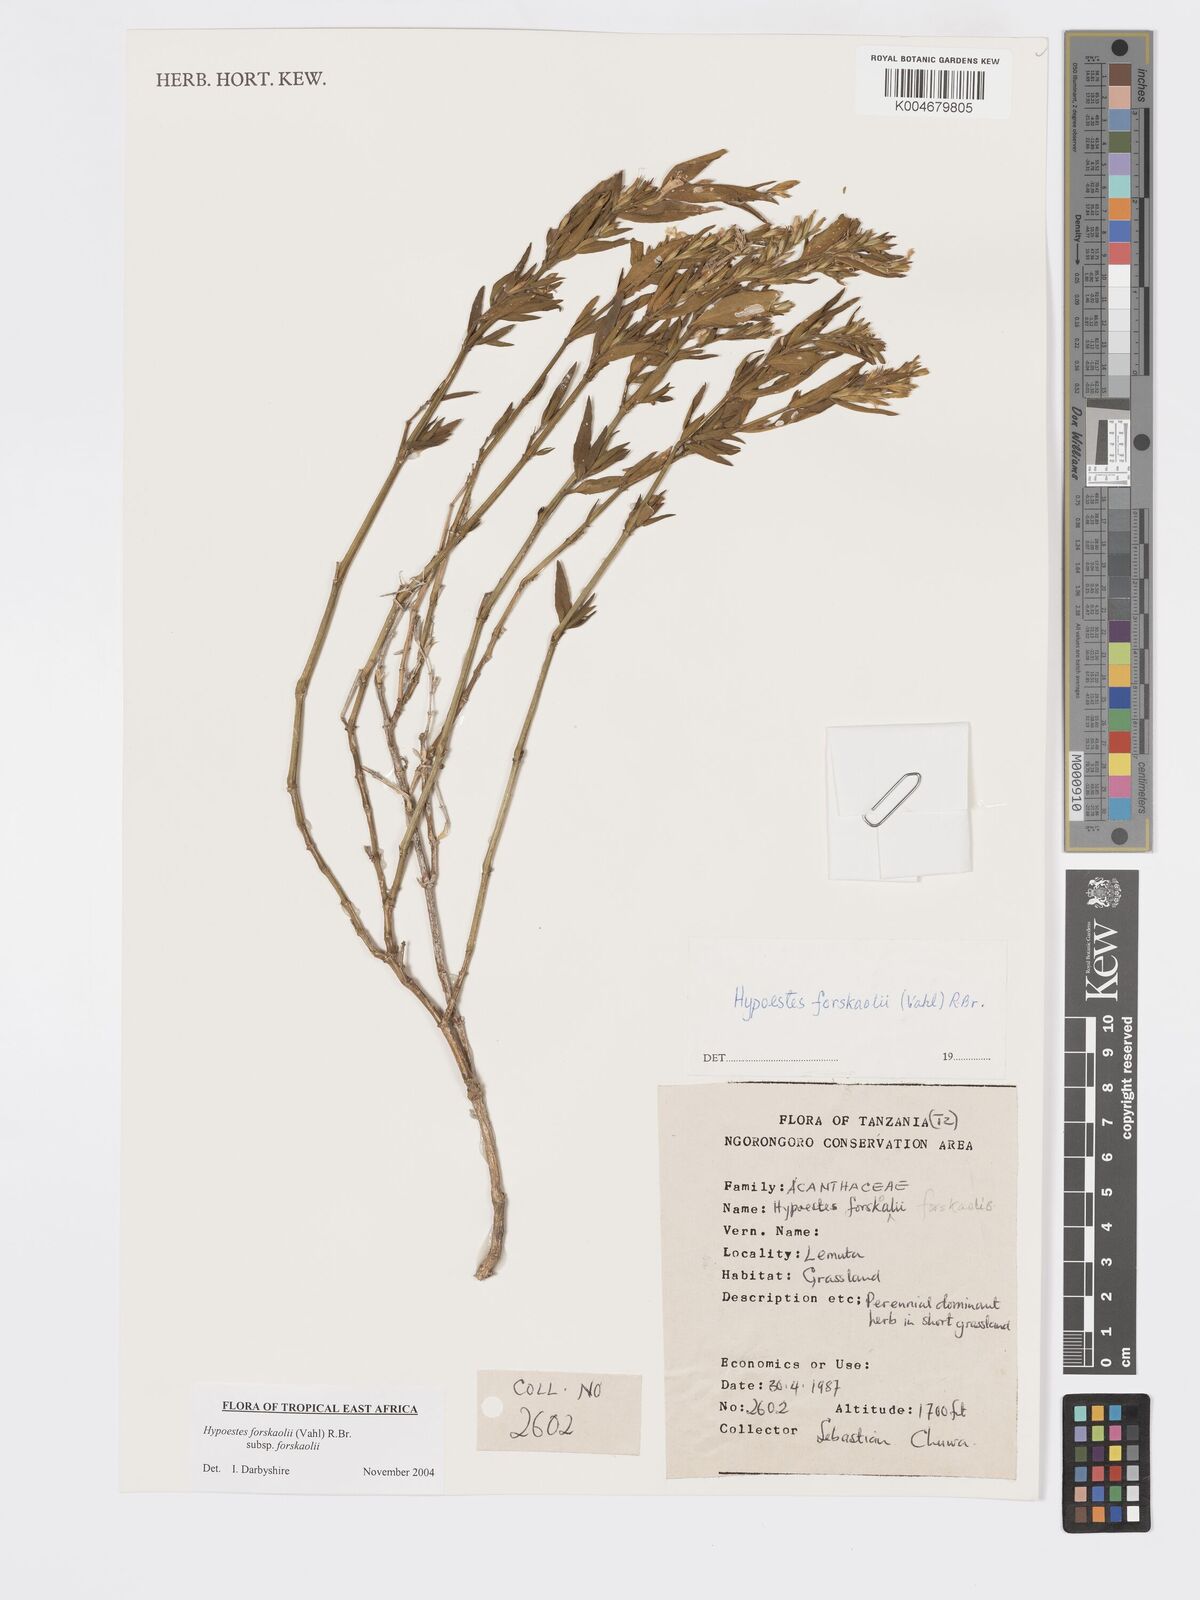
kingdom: Plantae
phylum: Tracheophyta
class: Magnoliopsida
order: Lamiales
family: Acanthaceae
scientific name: Acanthaceae
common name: Acanthaceae
